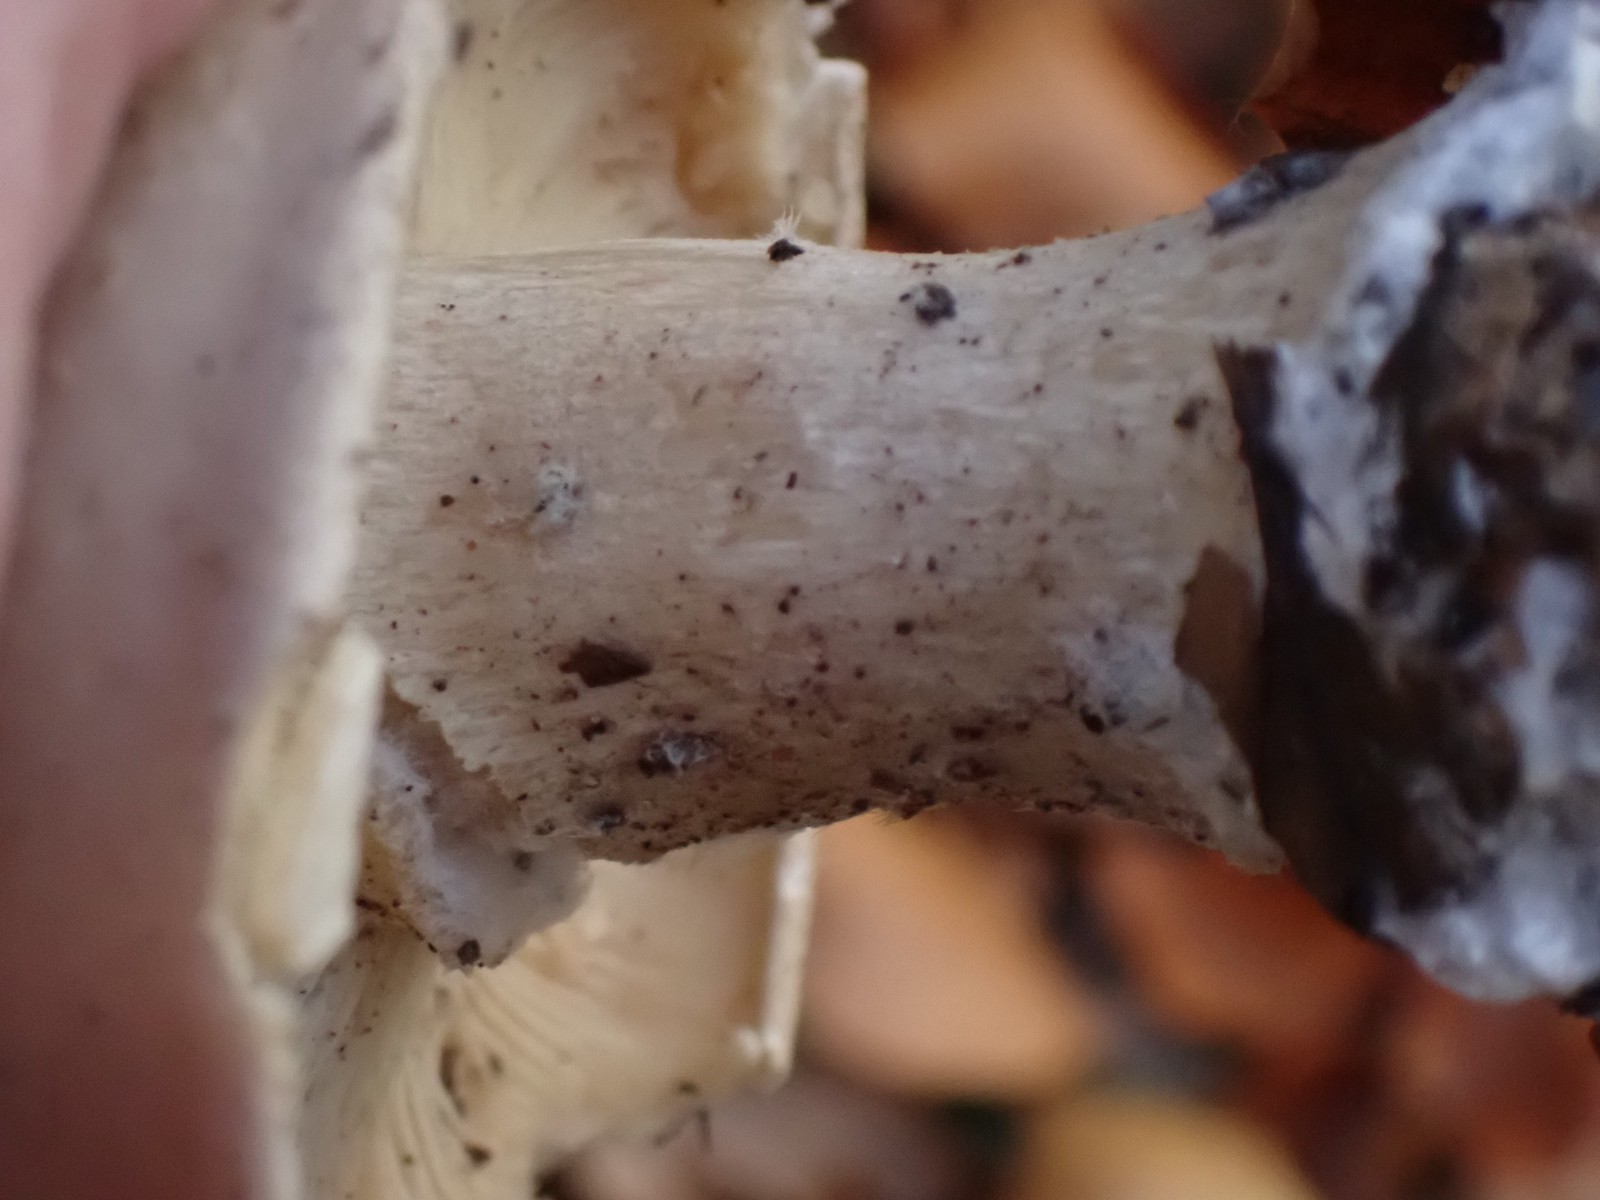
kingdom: Fungi
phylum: Basidiomycota
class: Agaricomycetes
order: Agaricales
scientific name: Agaricales
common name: champignonordenen
